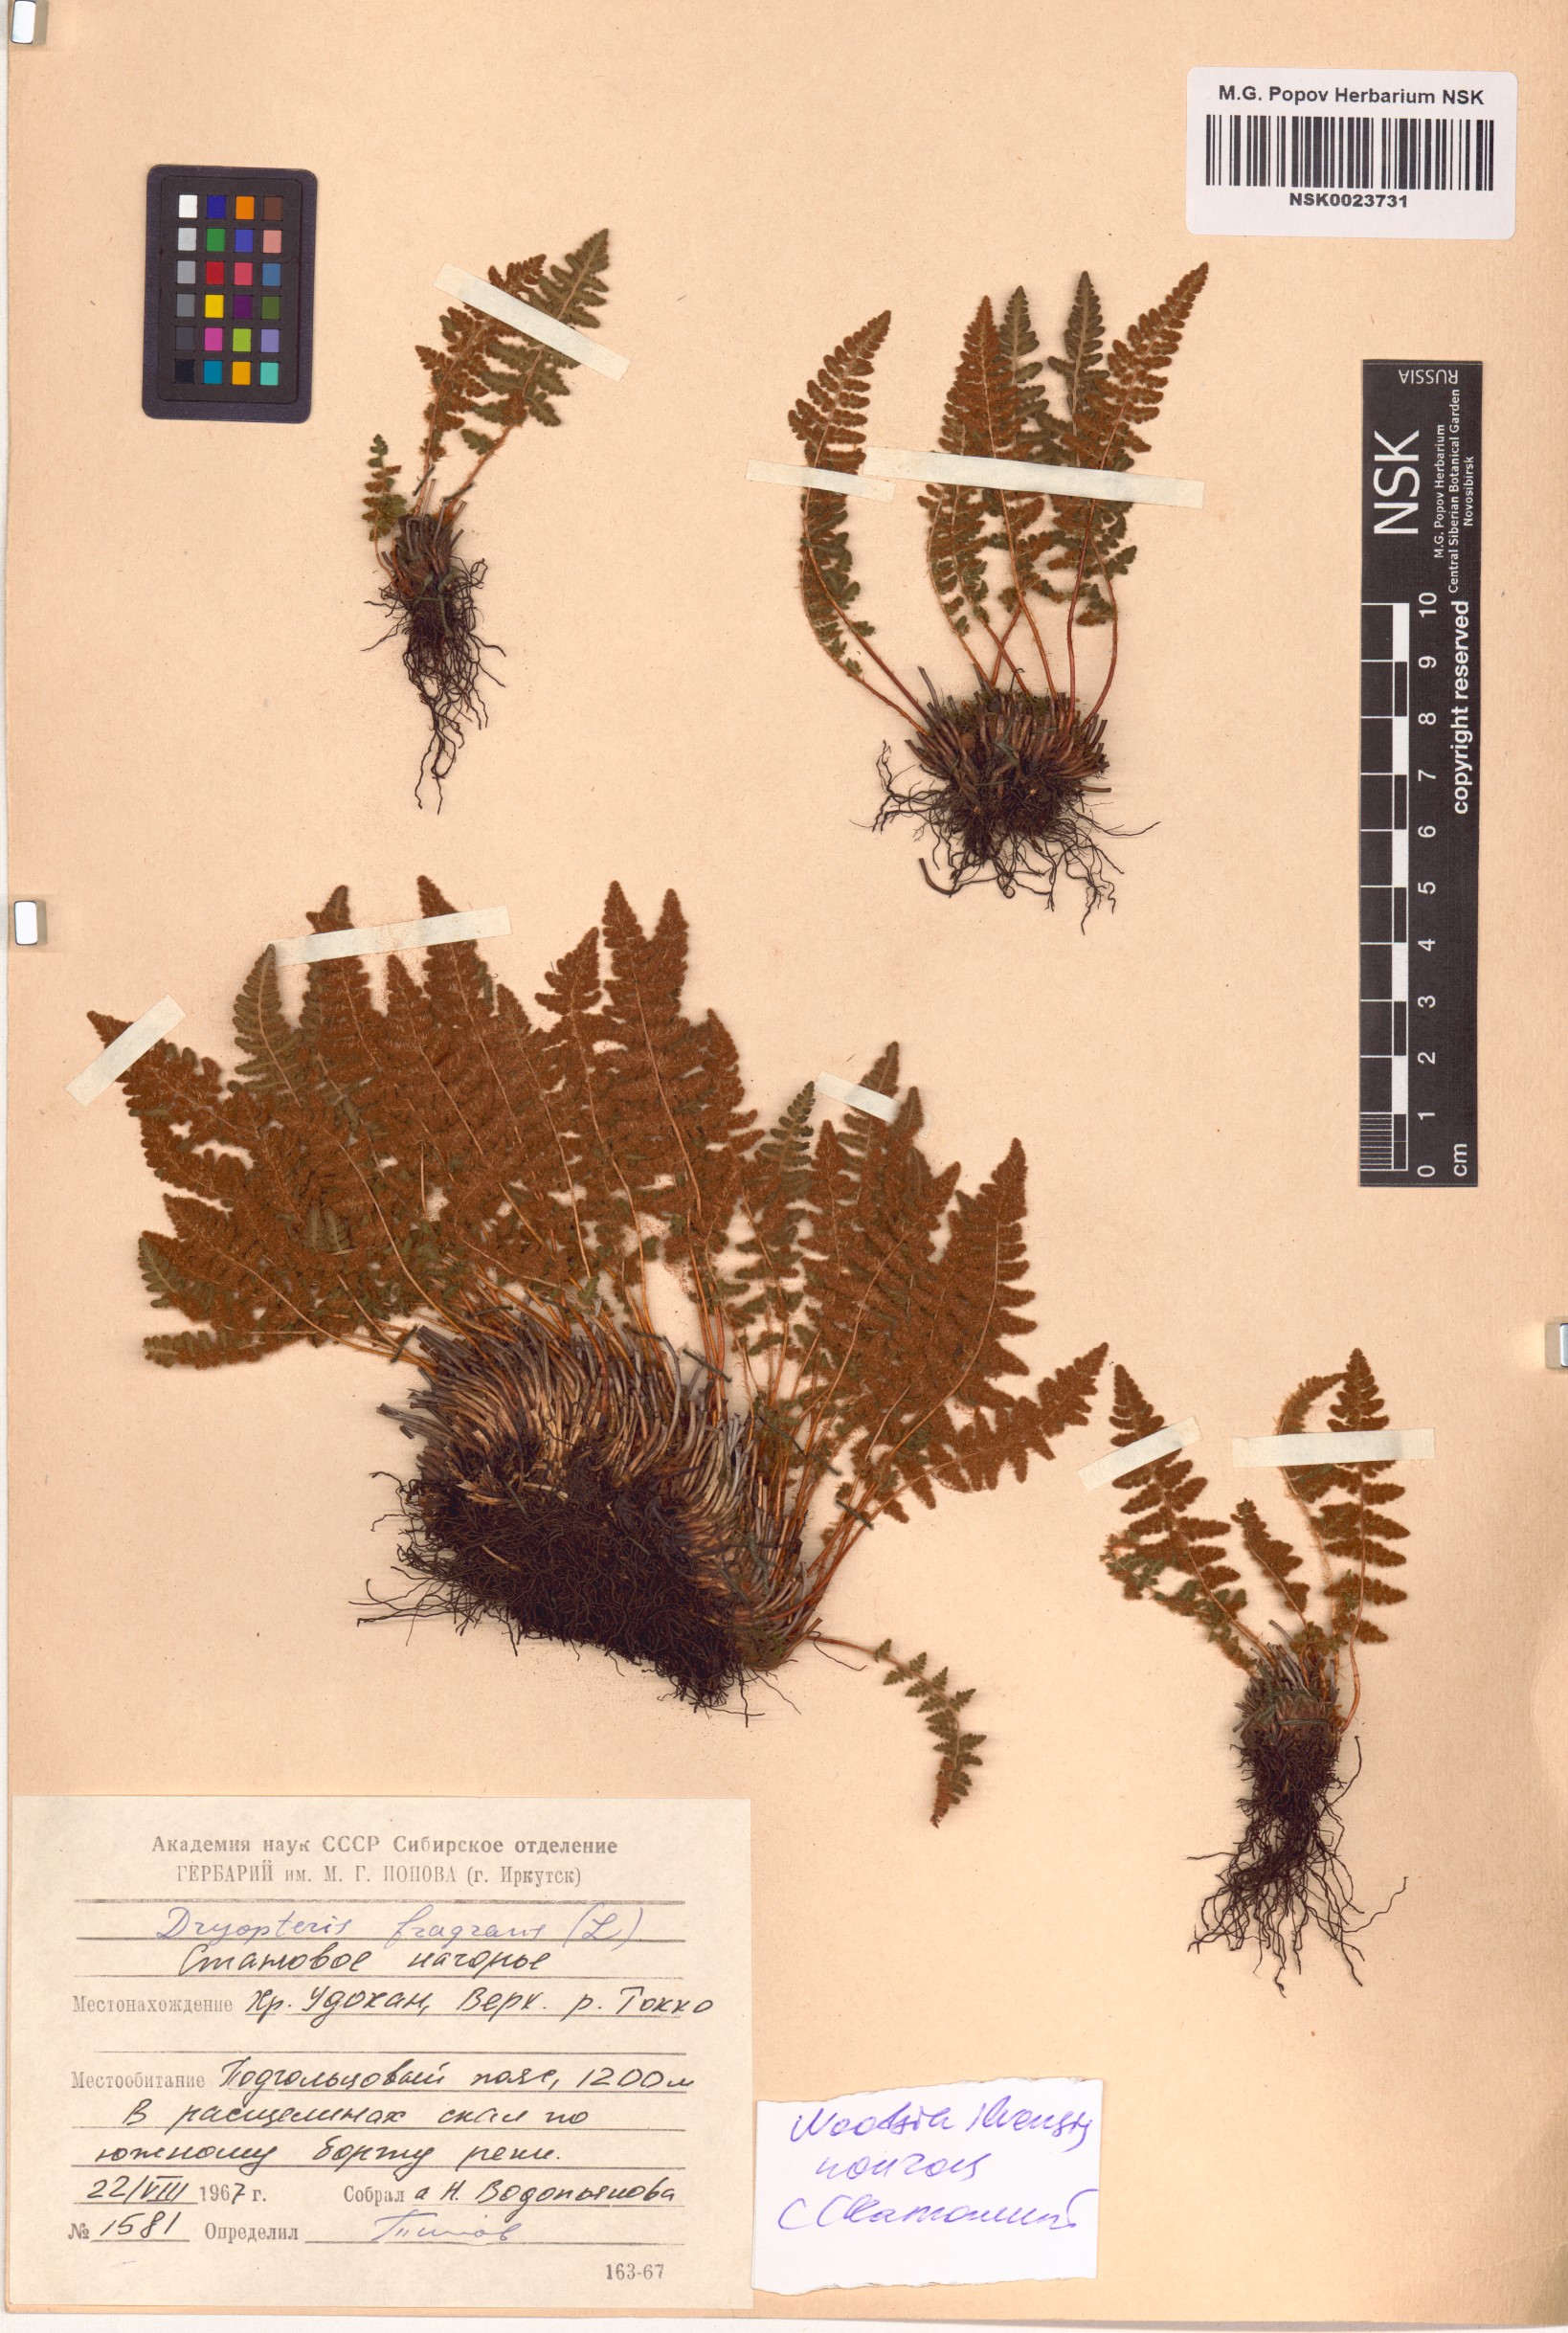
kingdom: Plantae
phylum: Tracheophyta
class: Polypodiopsida
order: Polypodiales
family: Woodsiaceae
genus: Woodsia
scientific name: Woodsia ilvensis
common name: Fragrant woodsia
